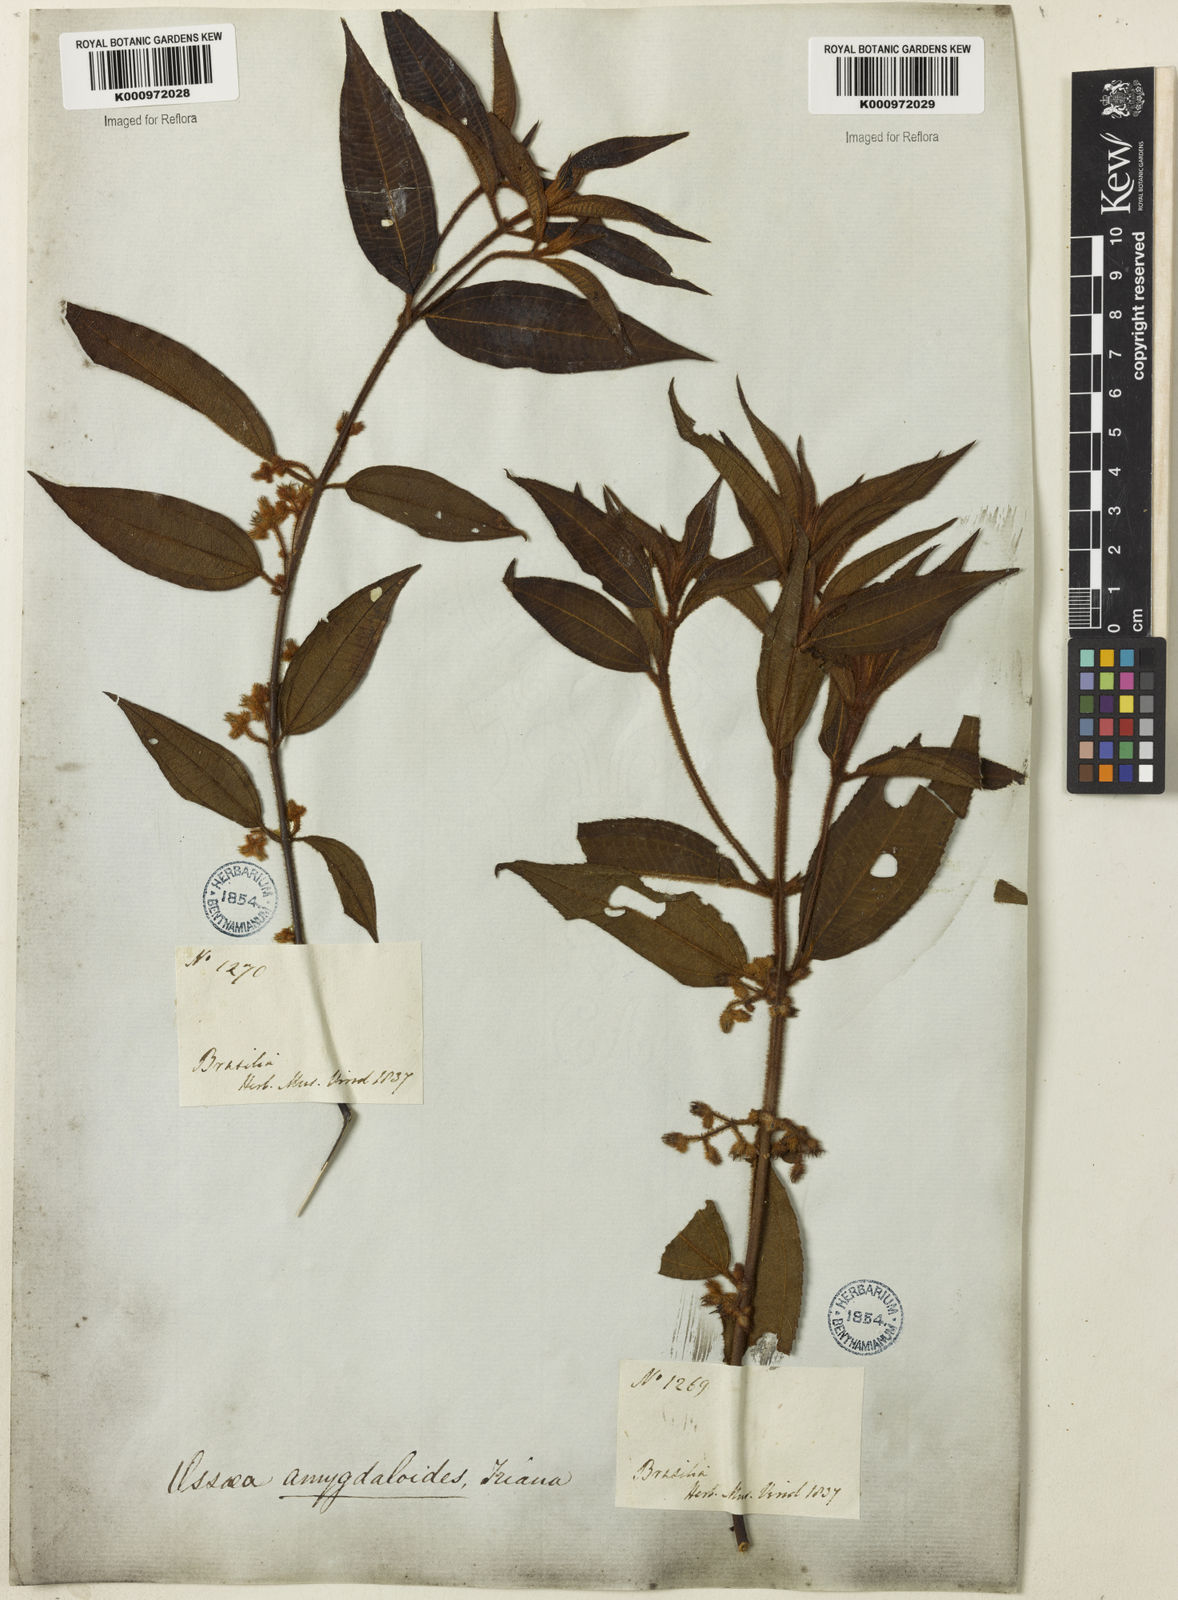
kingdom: Plantae
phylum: Tracheophyta
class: Magnoliopsida
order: Myrtales
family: Melastomataceae
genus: Miconia
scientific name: Miconia amygdaloides
